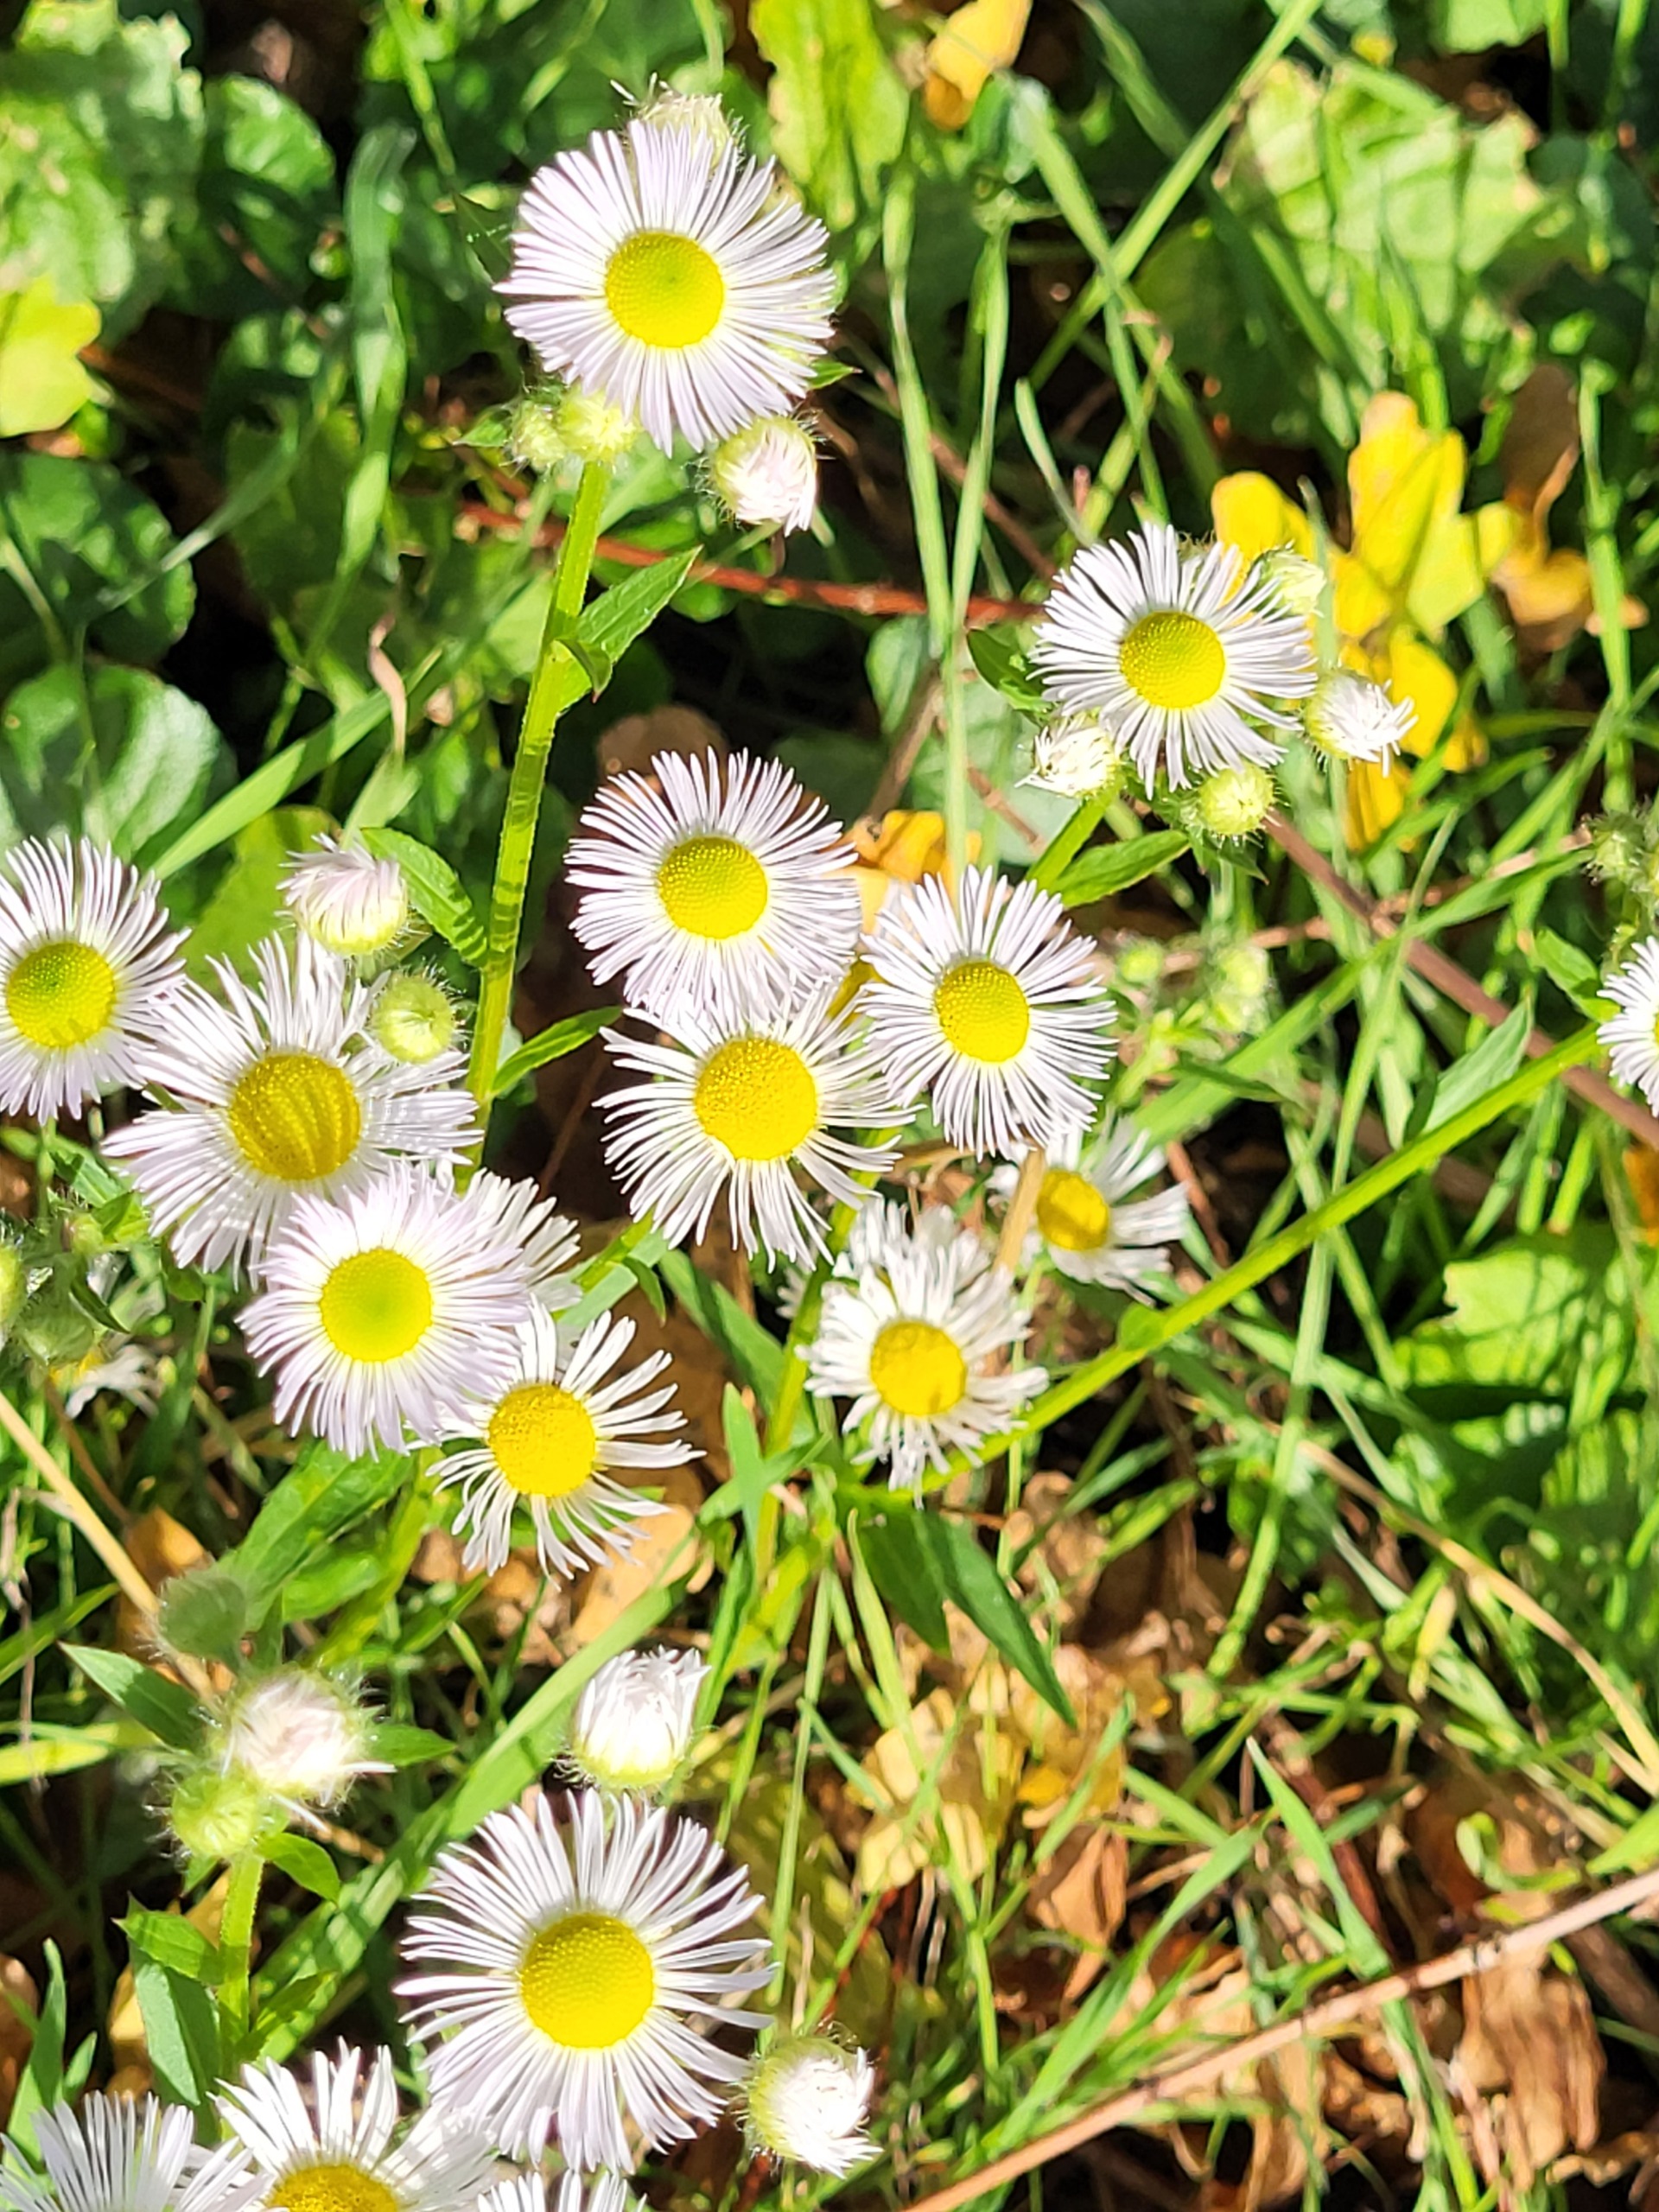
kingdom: Plantae
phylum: Tracheophyta
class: Magnoliopsida
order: Asterales
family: Asteraceae
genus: Erigeron
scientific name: Erigeron annuus
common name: Smalstråle
